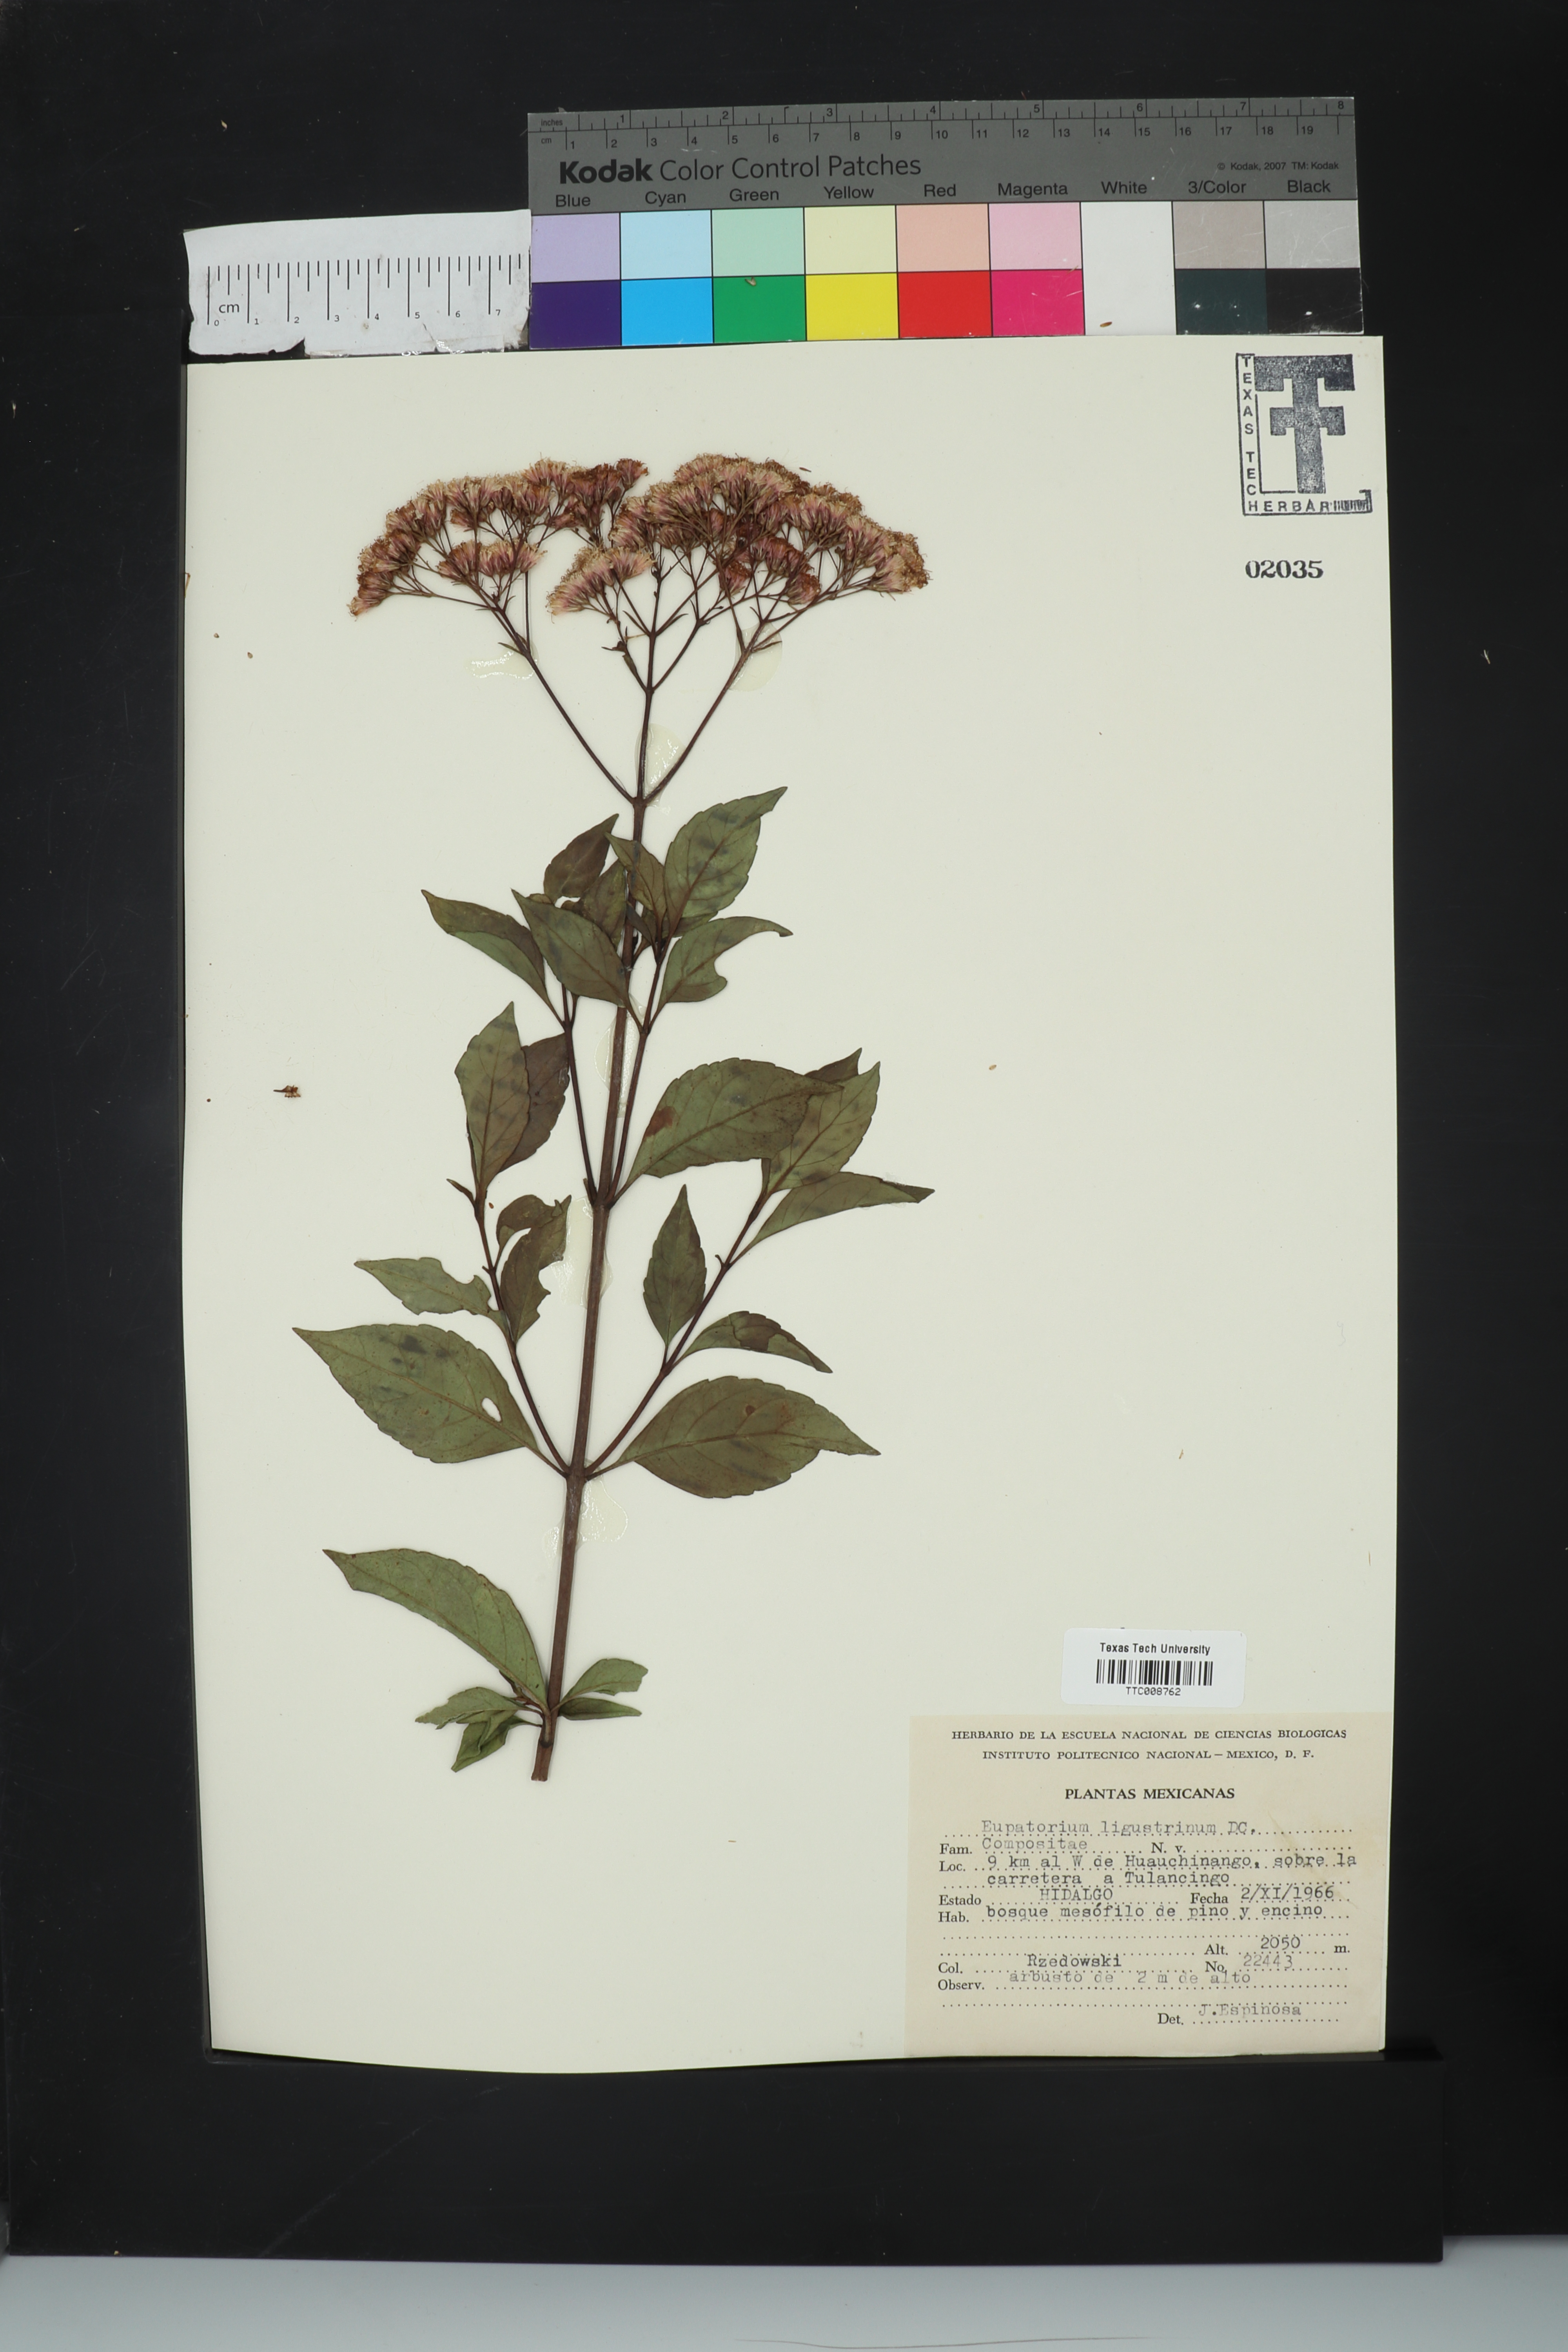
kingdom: Plantae
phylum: Tracheophyta
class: Magnoliopsida
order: Asterales
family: Asteraceae
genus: Ageratina
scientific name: Ageratina ligustrina
